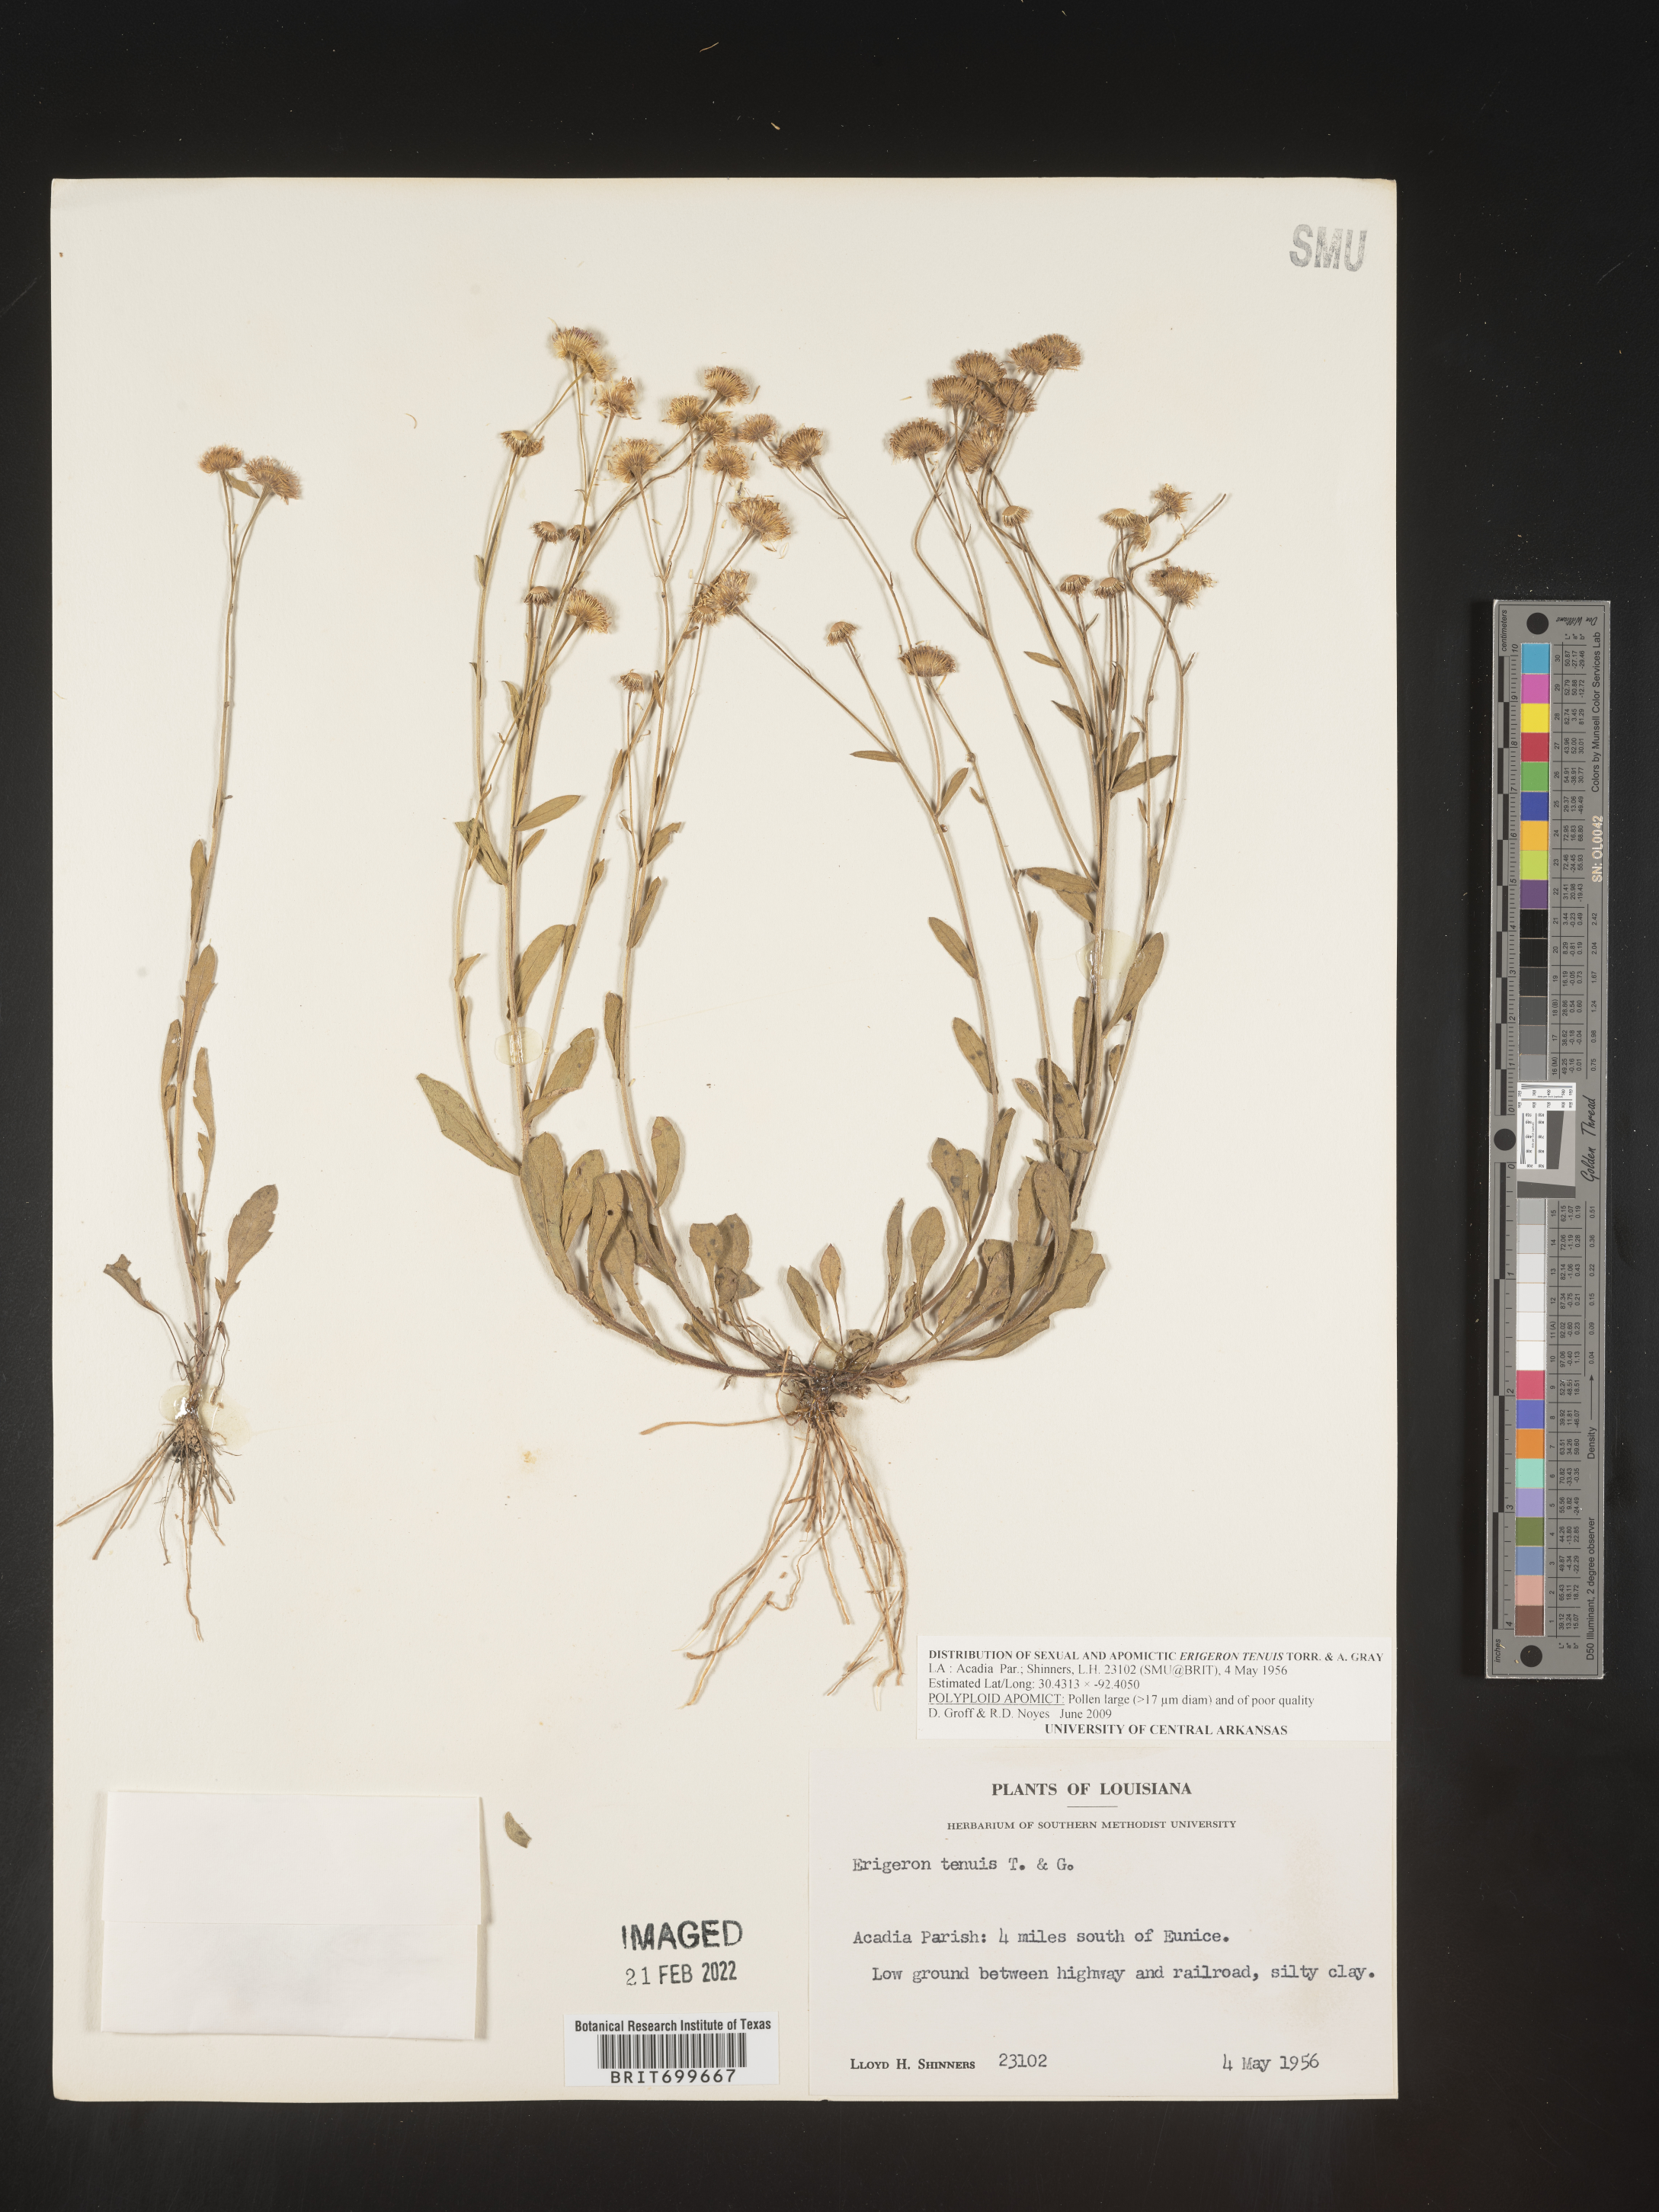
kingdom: Plantae
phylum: Tracheophyta
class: Magnoliopsida
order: Asterales
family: Asteraceae
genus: Erigeron
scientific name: Erigeron tenuis
